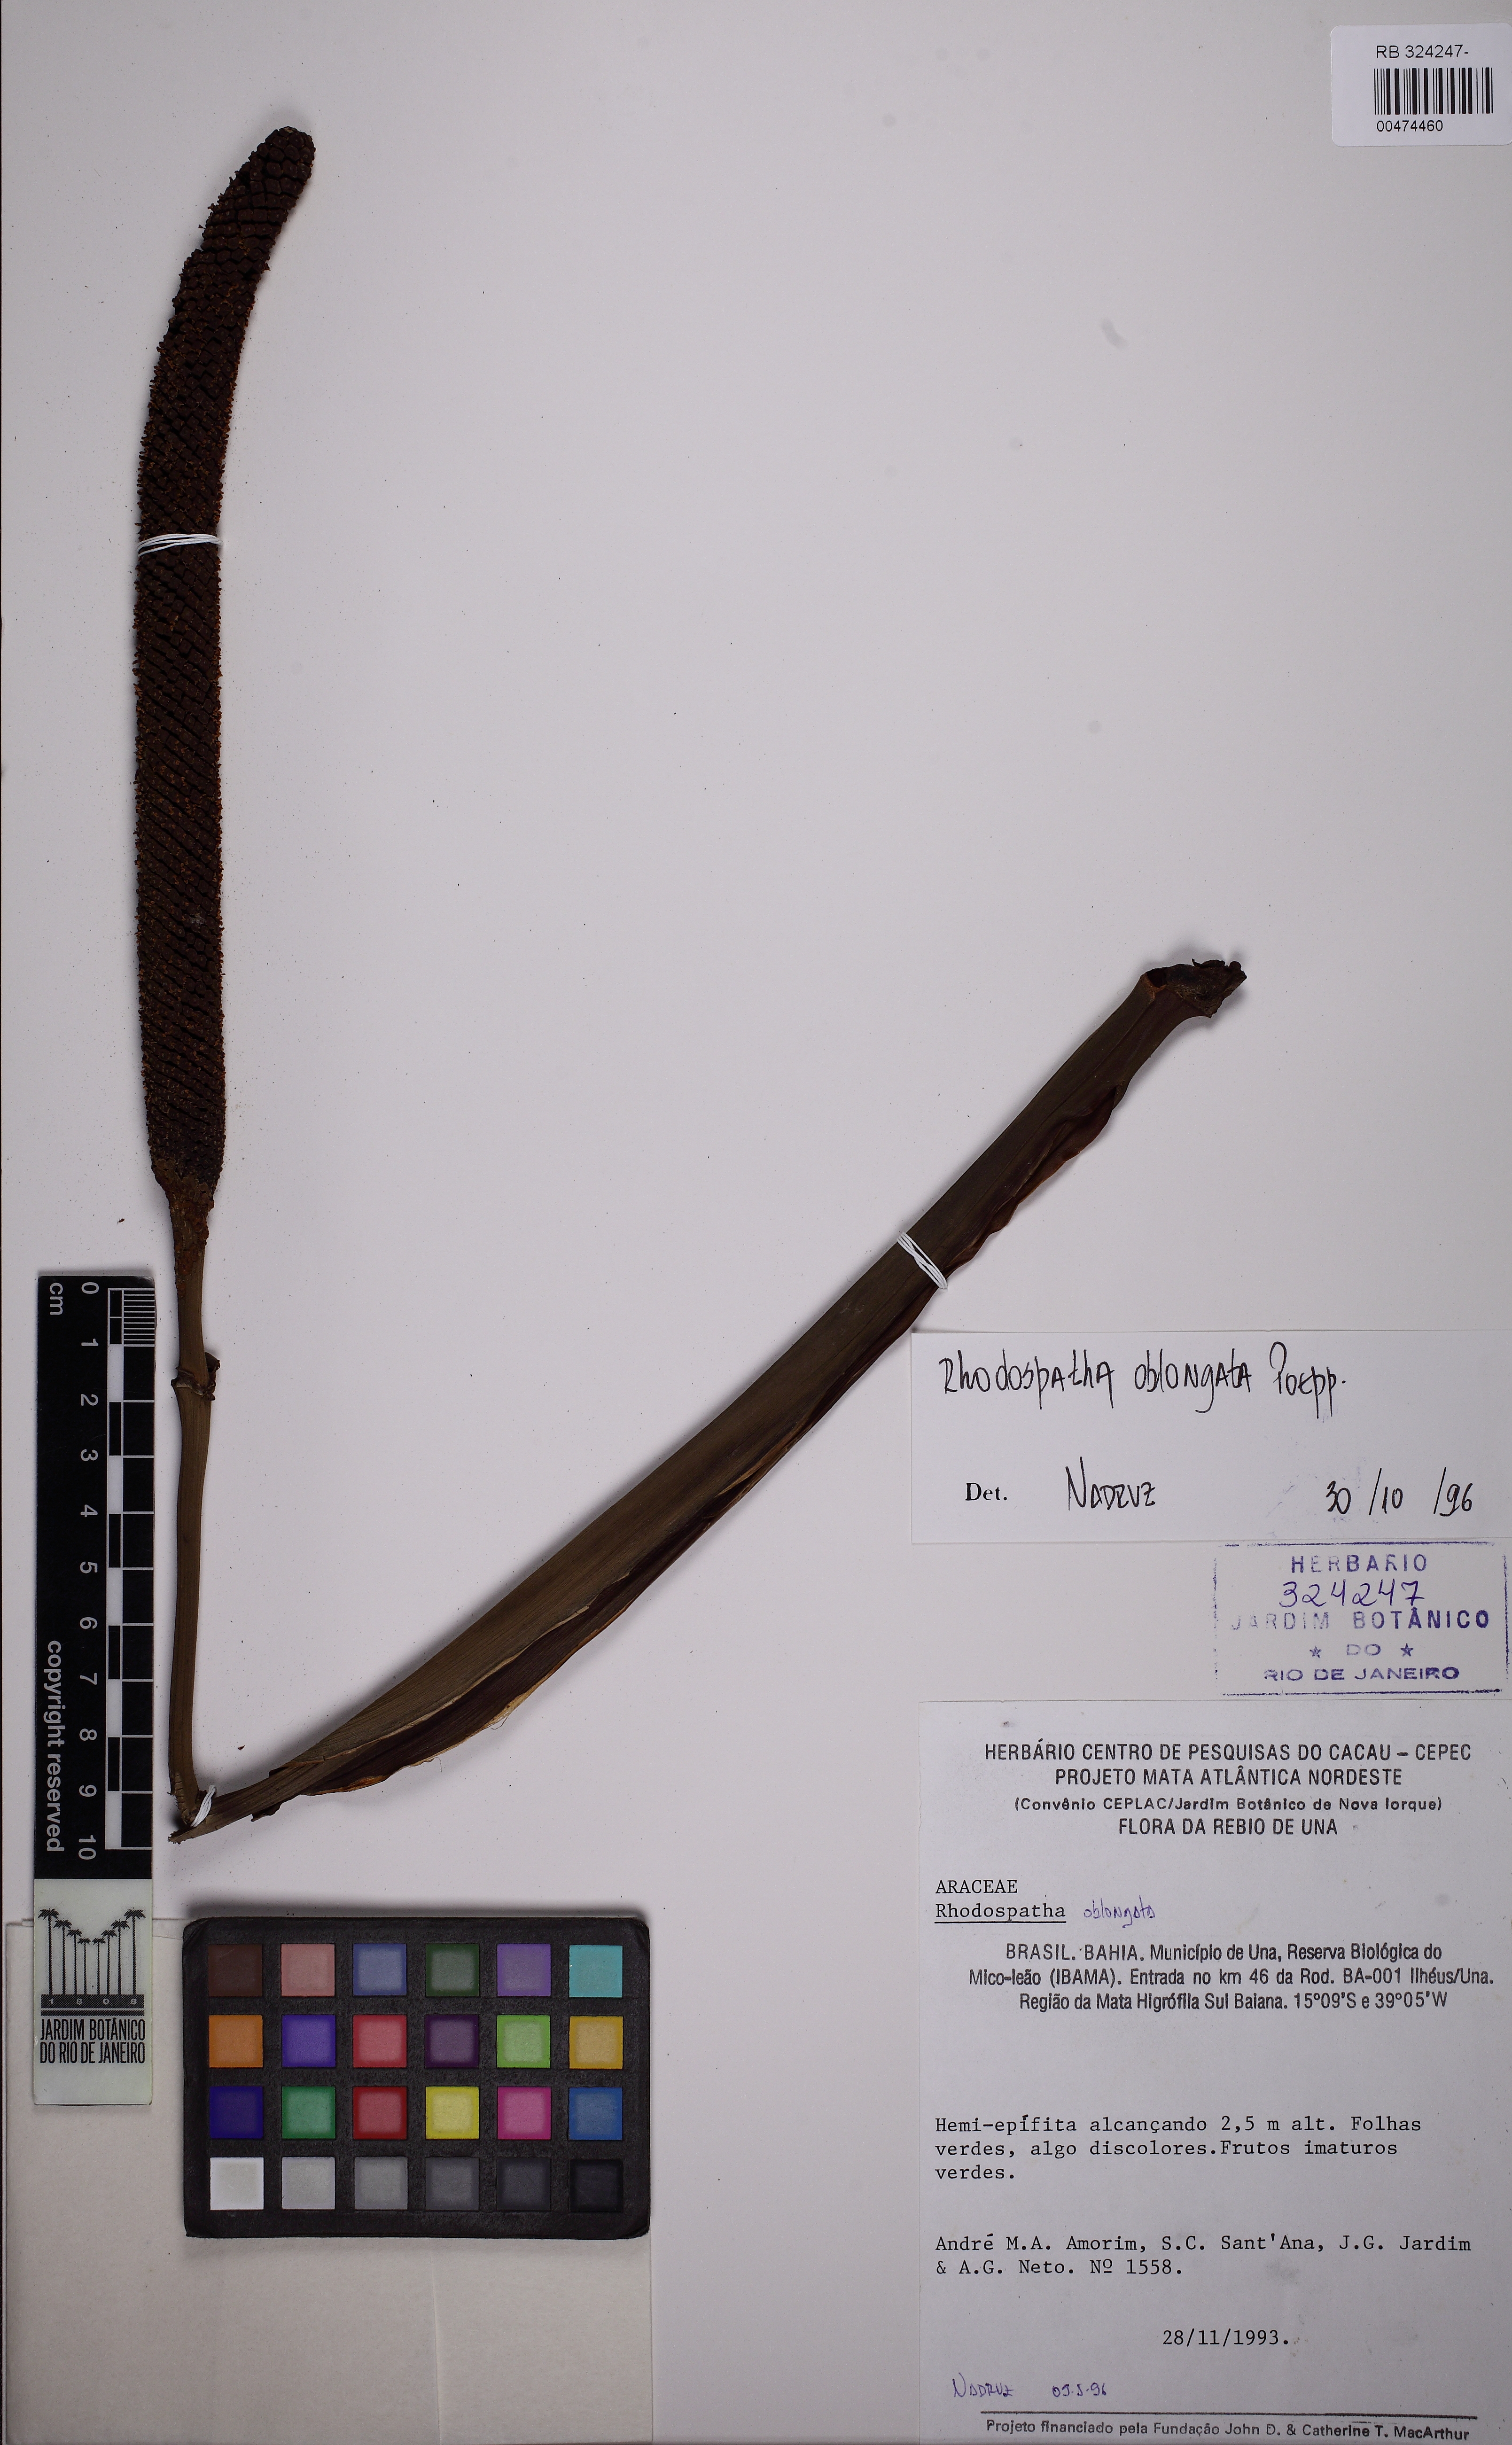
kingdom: Plantae
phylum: Tracheophyta
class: Liliopsida
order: Alismatales
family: Araceae
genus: Rhodospatha
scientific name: Rhodospatha oblongata
